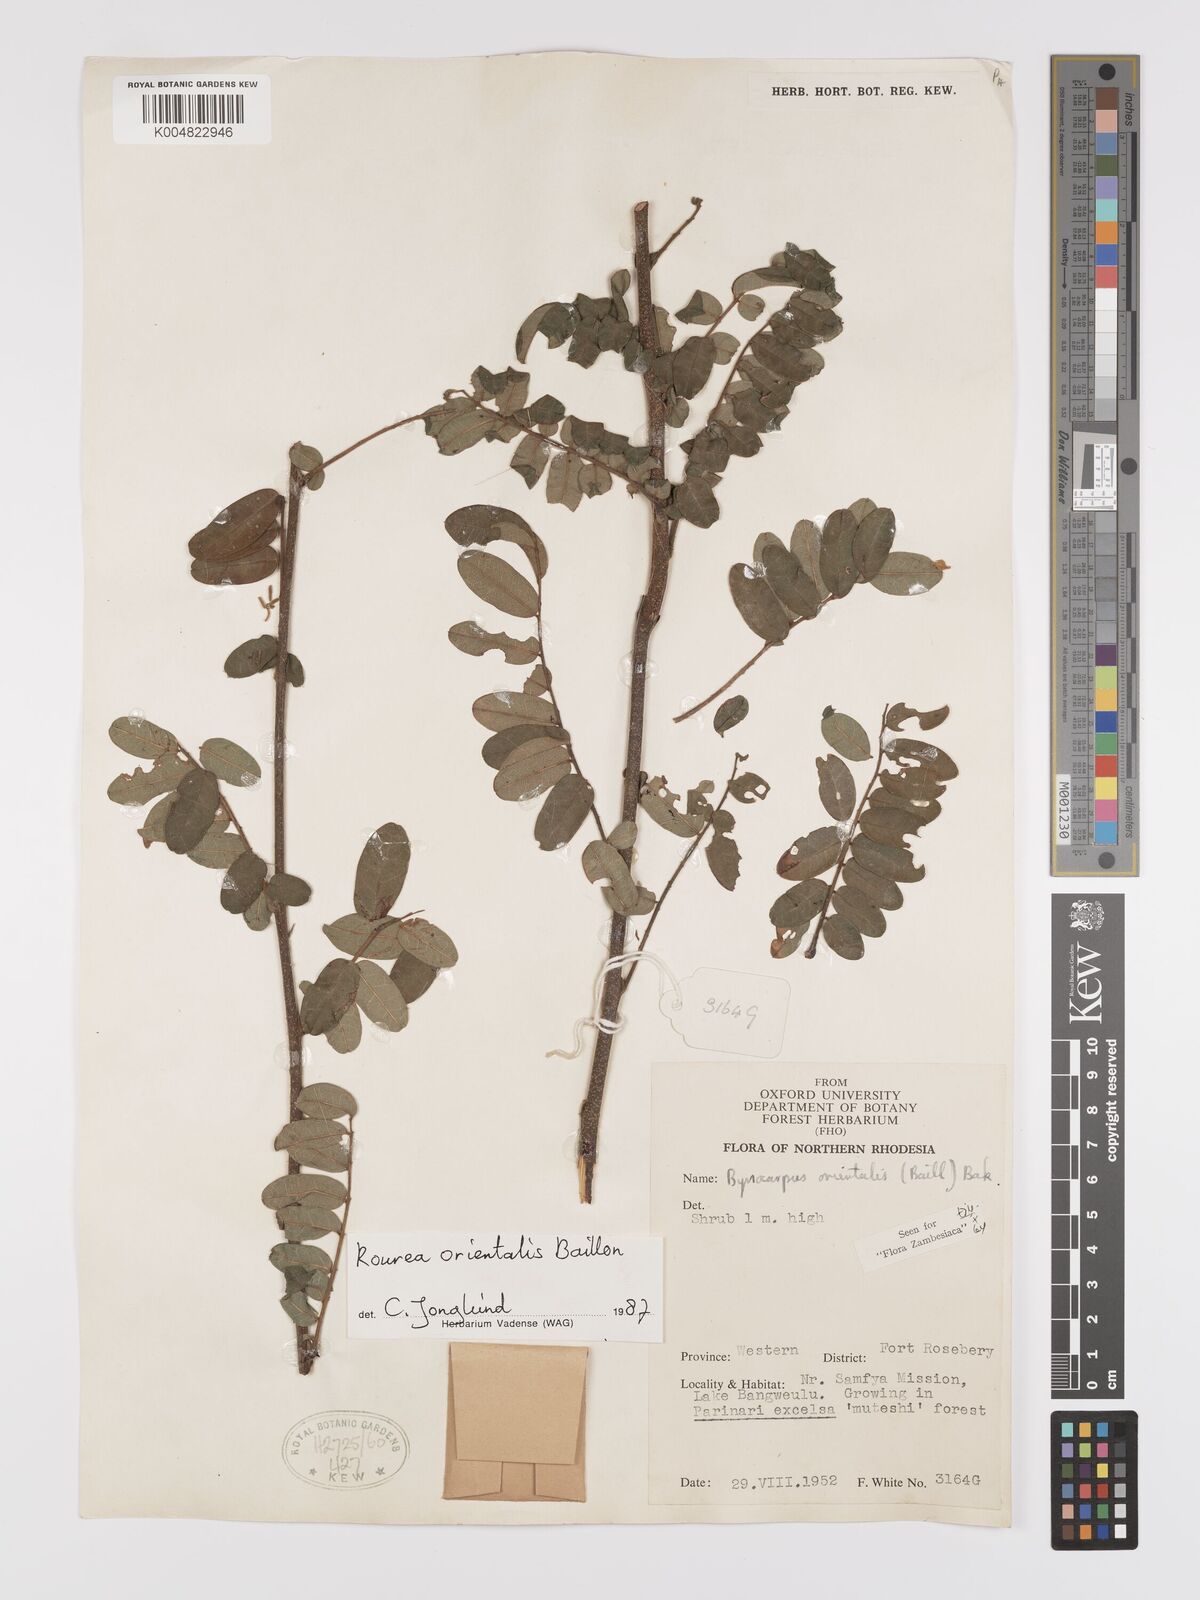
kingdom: Plantae
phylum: Tracheophyta
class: Magnoliopsida
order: Oxalidales
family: Connaraceae
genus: Rourea
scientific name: Rourea orientalis
